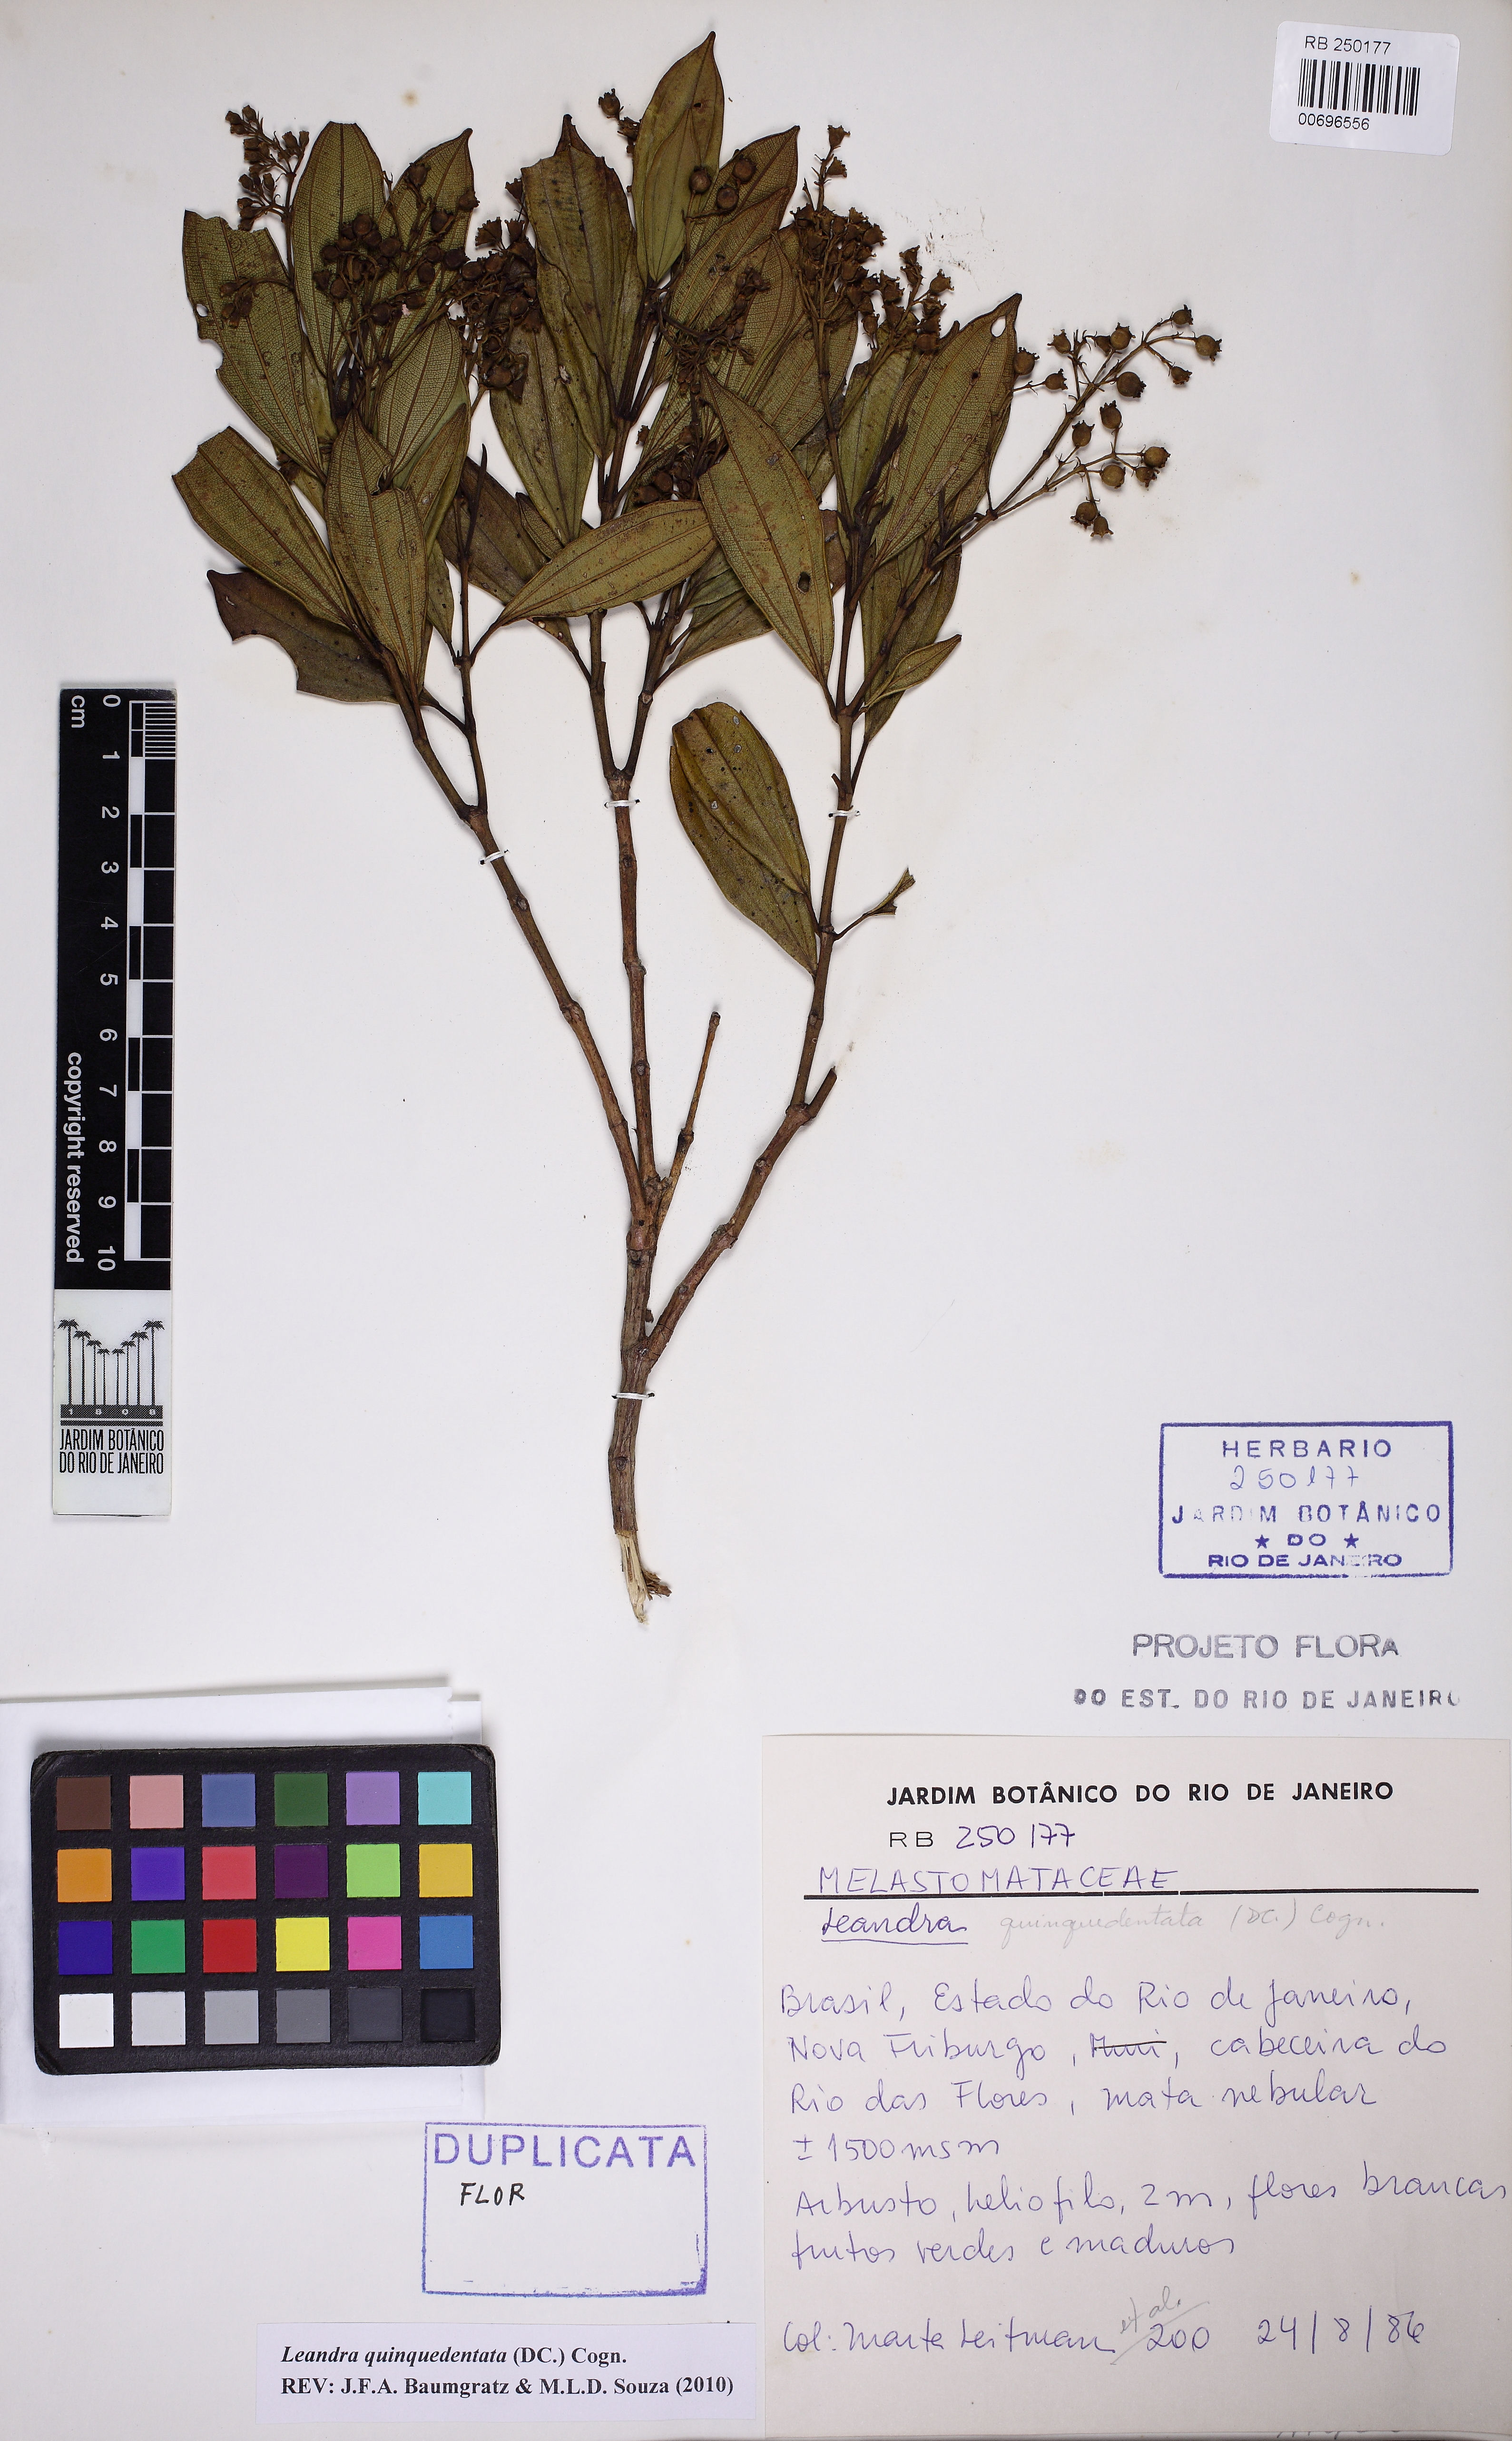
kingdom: Plantae
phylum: Tracheophyta
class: Magnoliopsida
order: Myrtales
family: Melastomataceae
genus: Miconia
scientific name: Miconia quinquedentata
